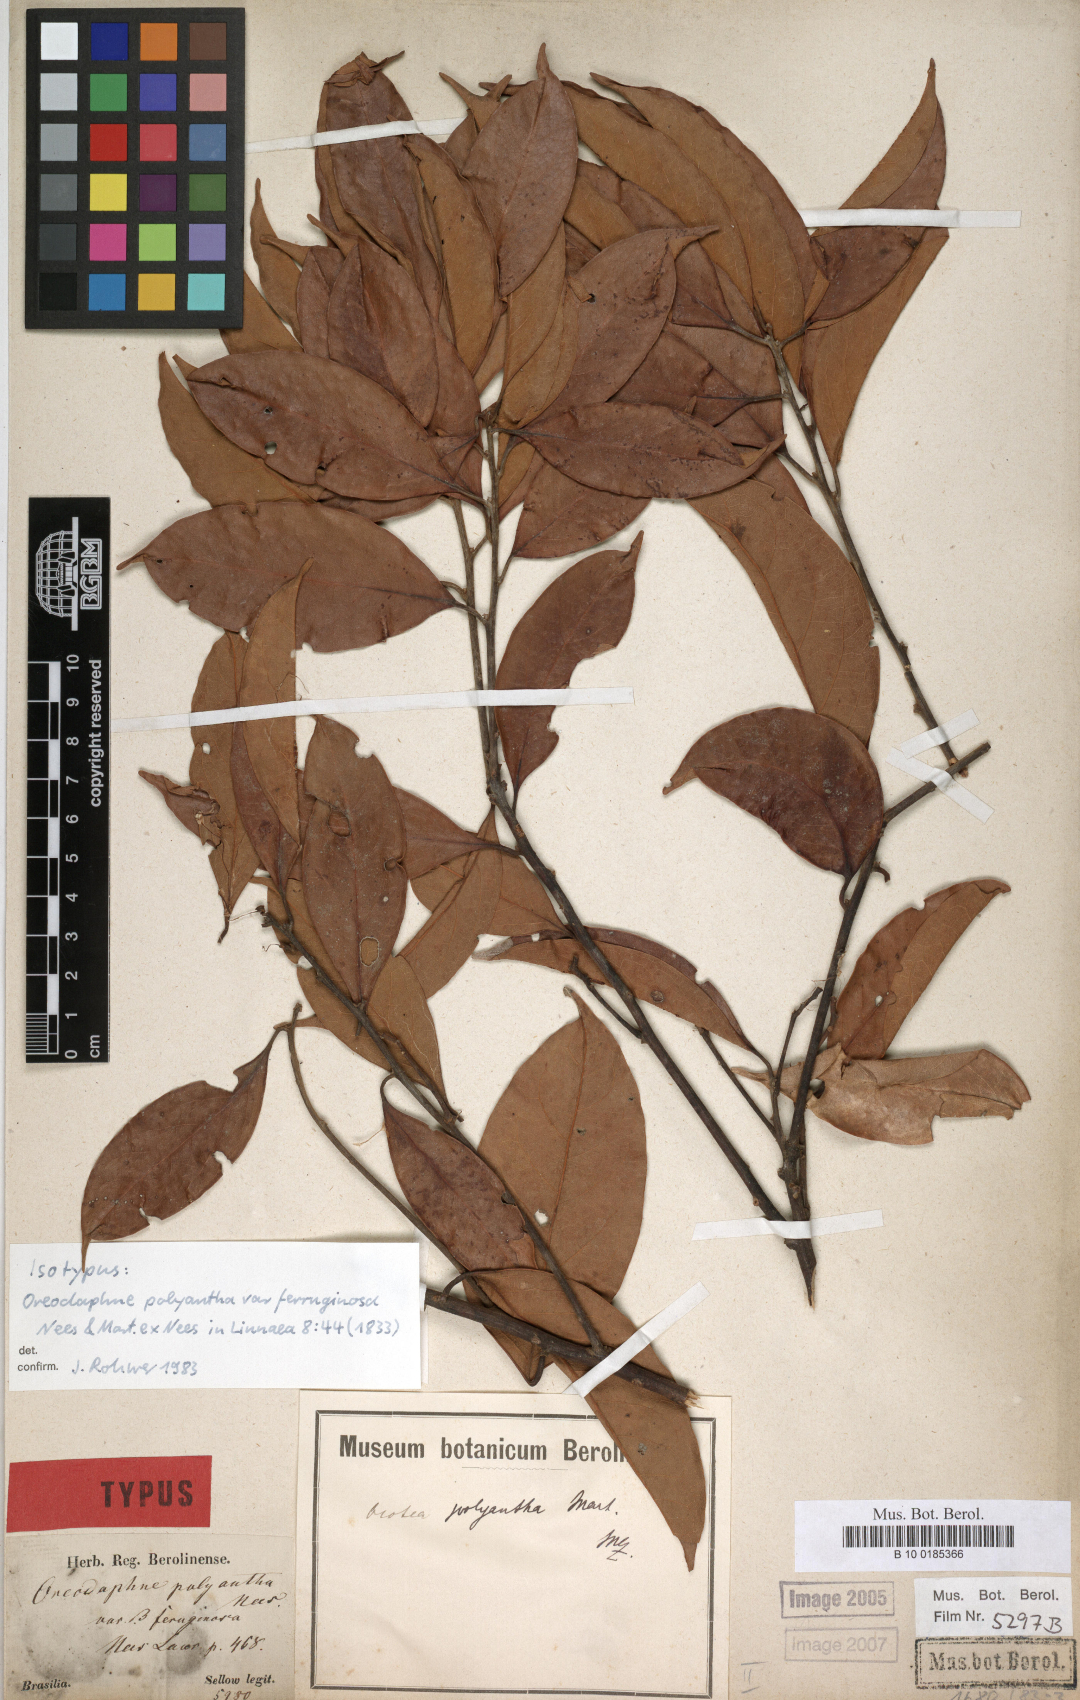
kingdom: Plantae
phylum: Tracheophyta
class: Magnoliopsida
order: Laurales
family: Lauraceae
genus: Ocotea
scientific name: Ocotea polyantha
